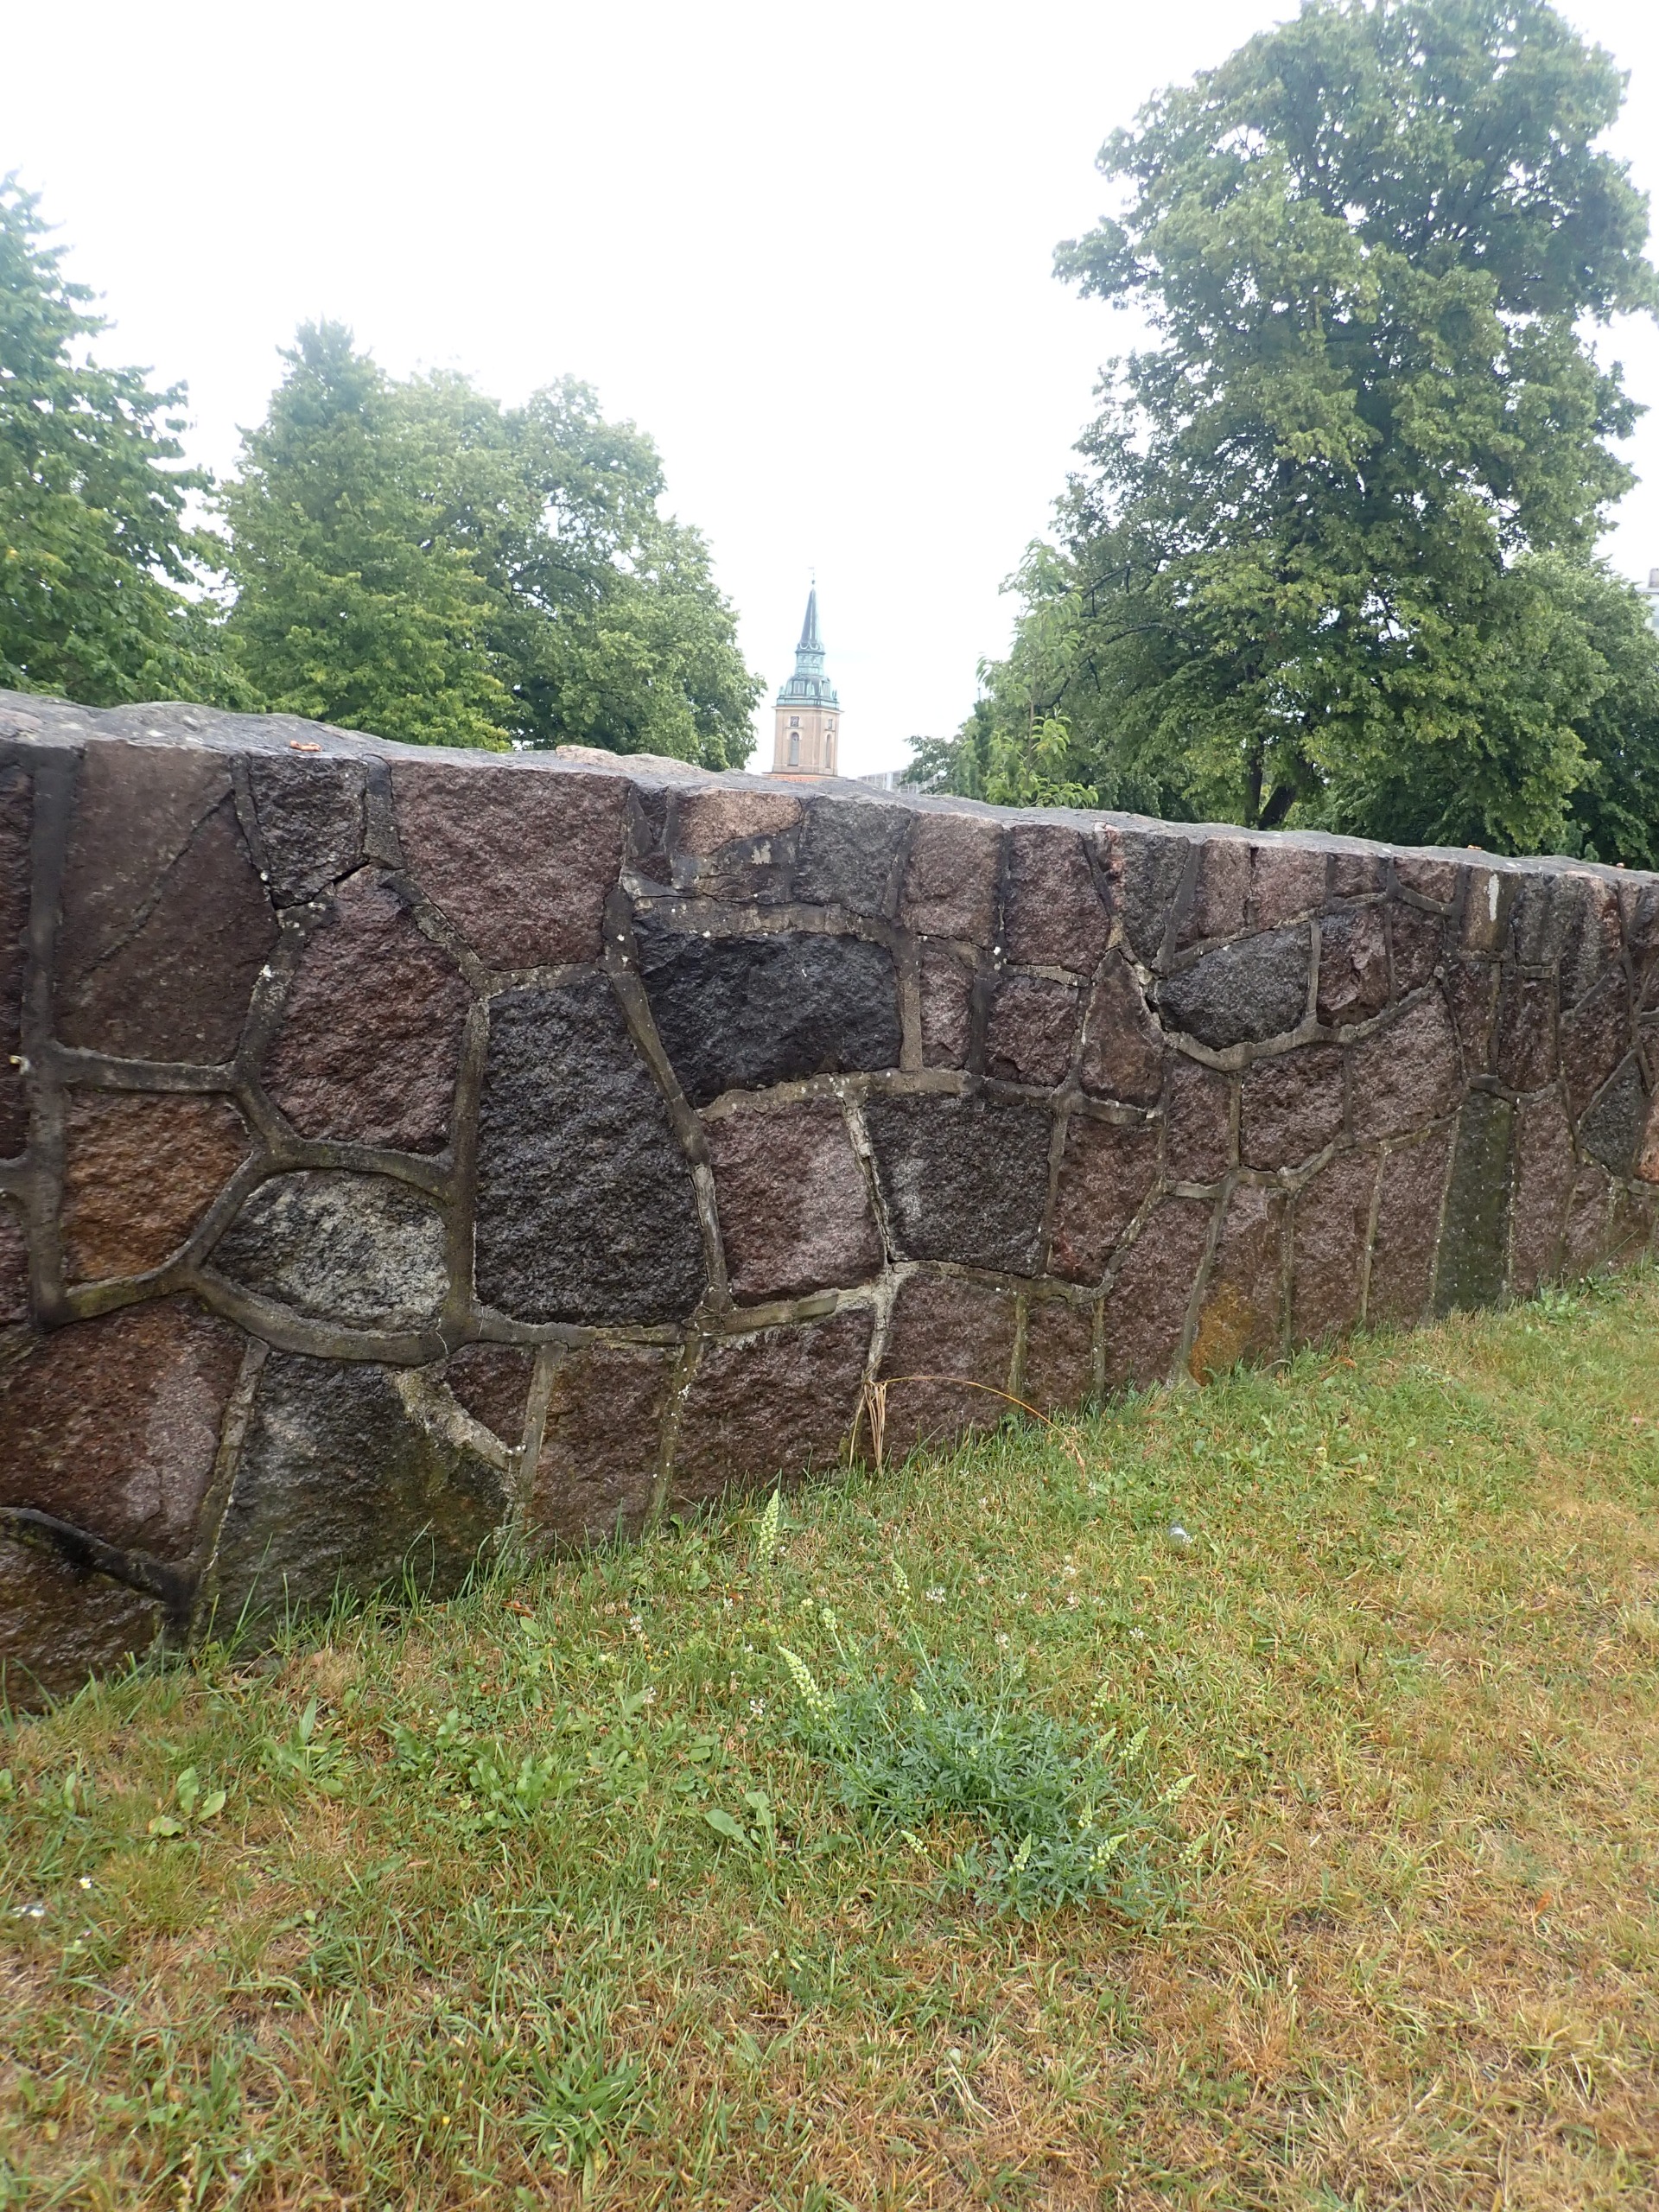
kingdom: Plantae
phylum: Tracheophyta
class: Magnoliopsida
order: Brassicales
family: Resedaceae
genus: Reseda
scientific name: Reseda lutea
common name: Gul reseda
